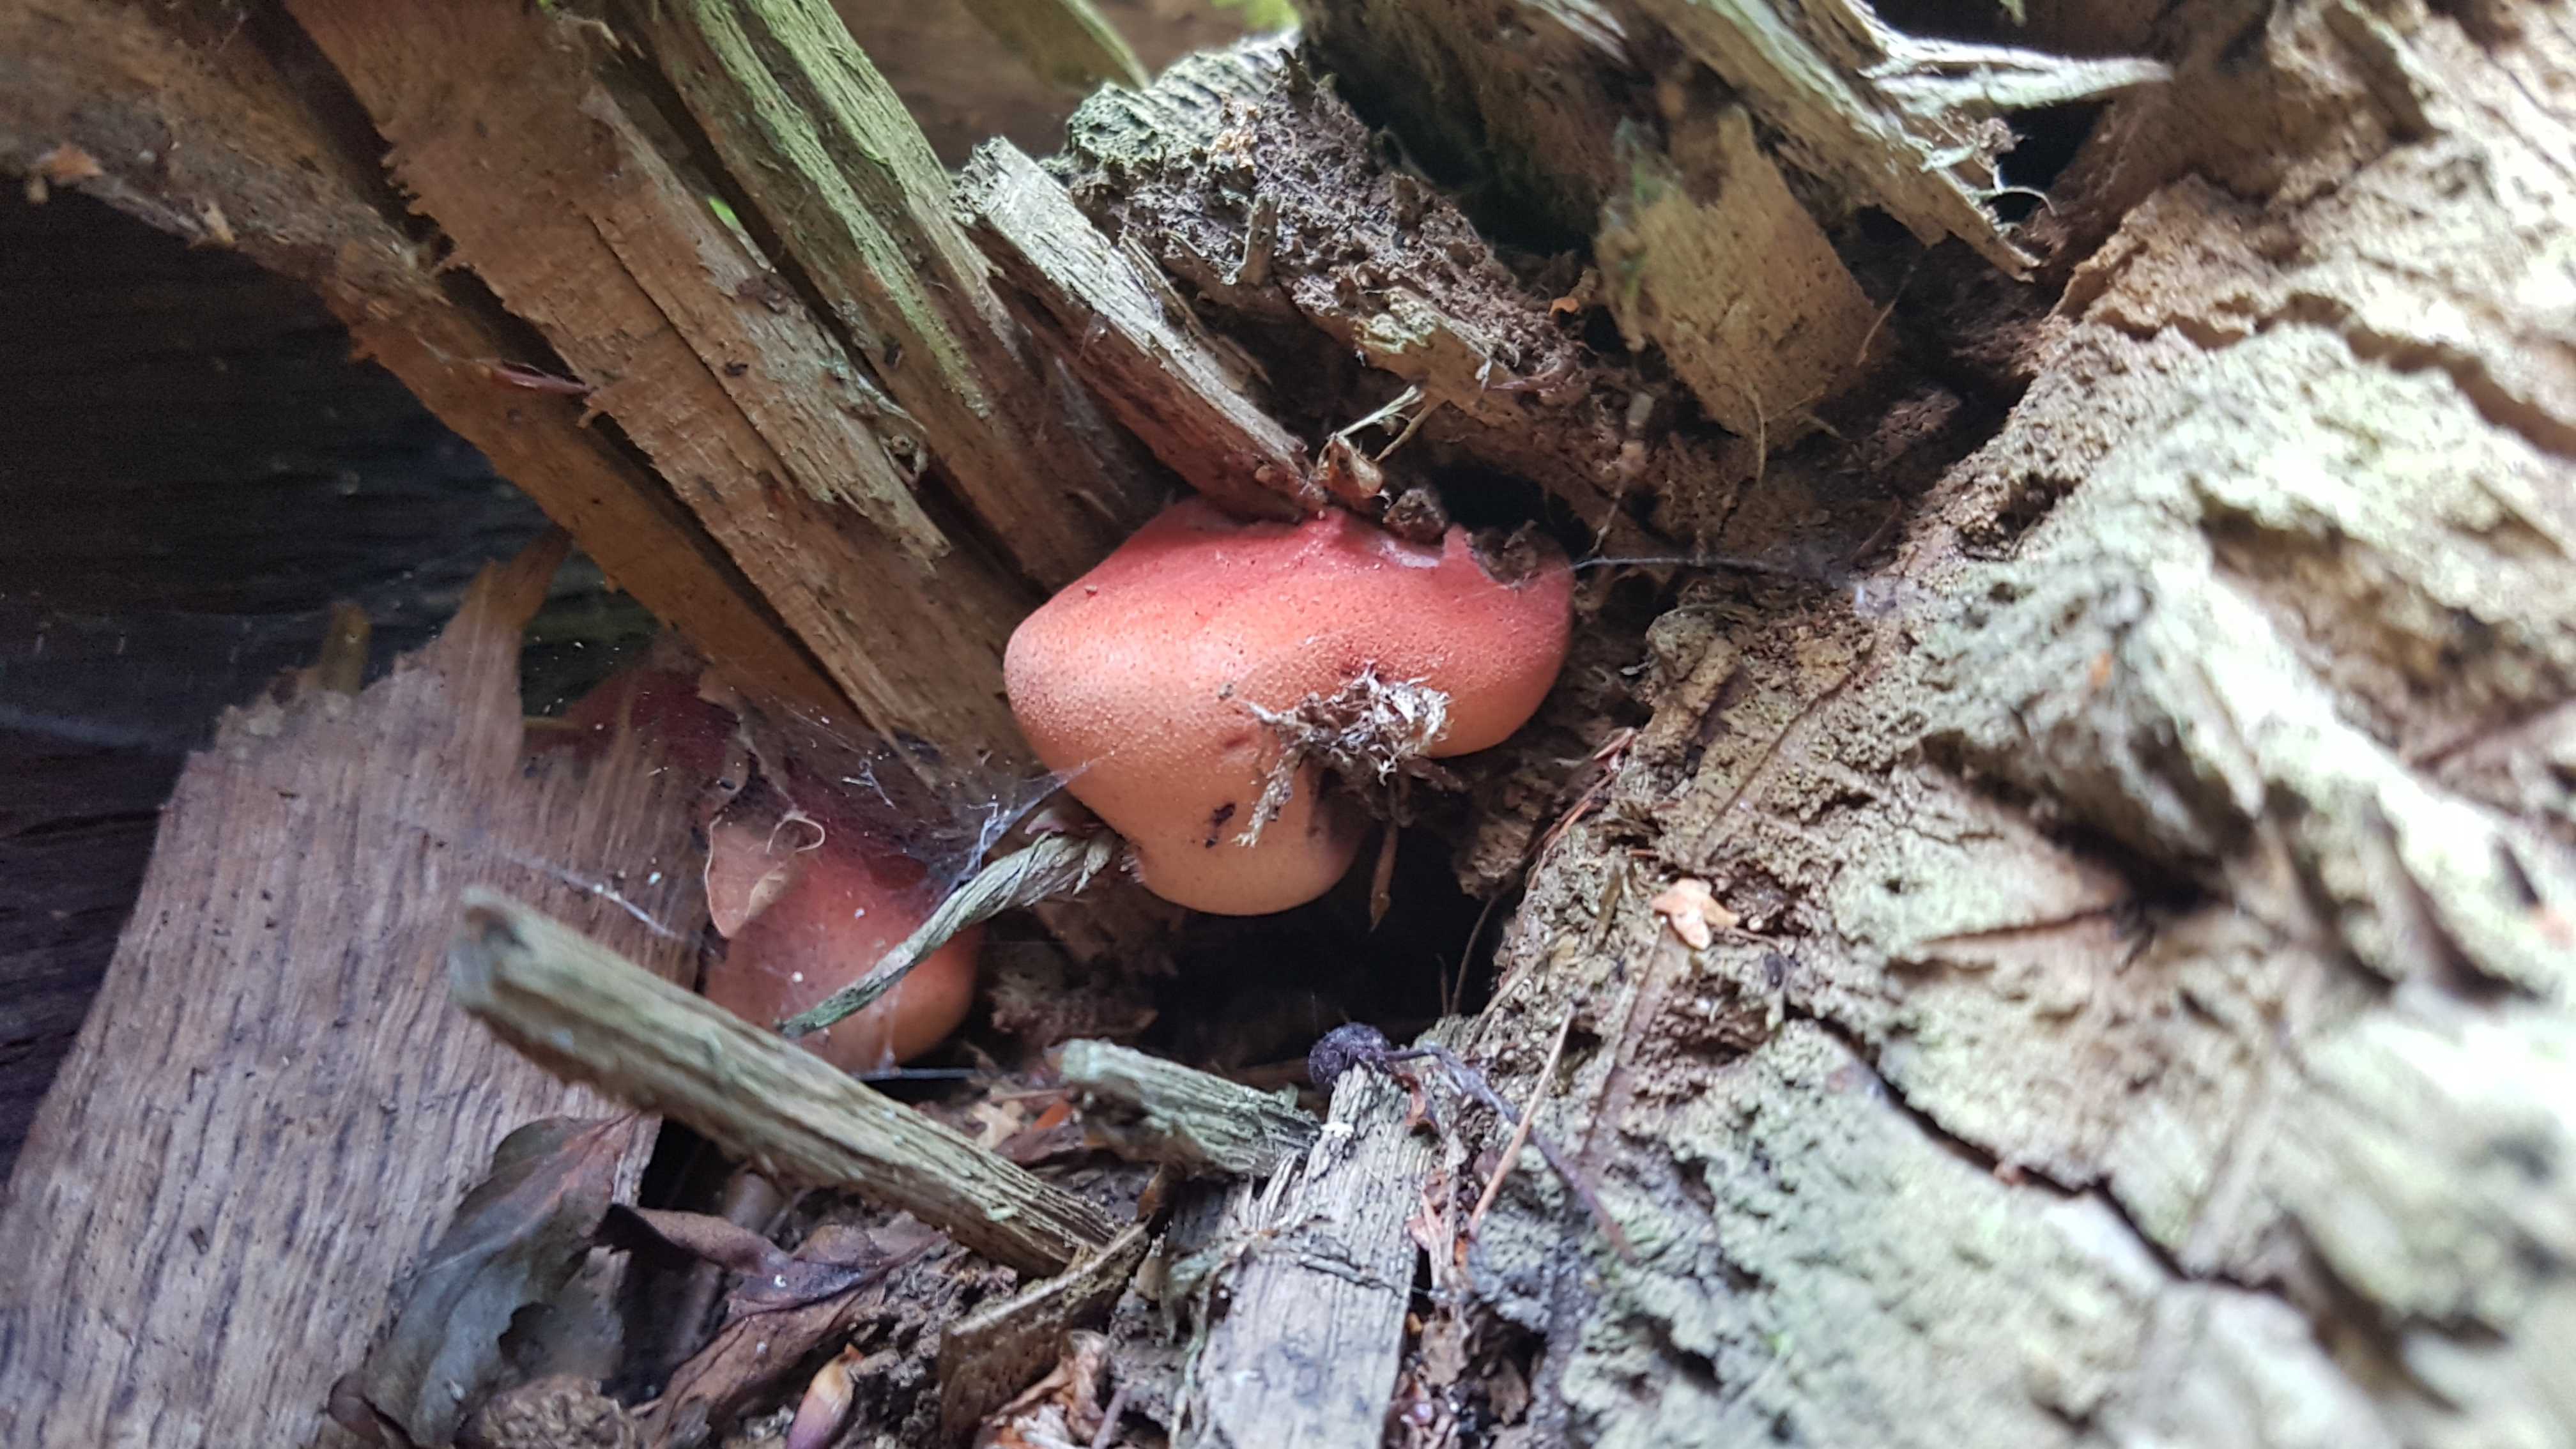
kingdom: Fungi
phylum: Basidiomycota
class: Agaricomycetes
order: Agaricales
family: Fistulinaceae
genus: Fistulina
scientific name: Fistulina hepatica
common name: oksetunge
